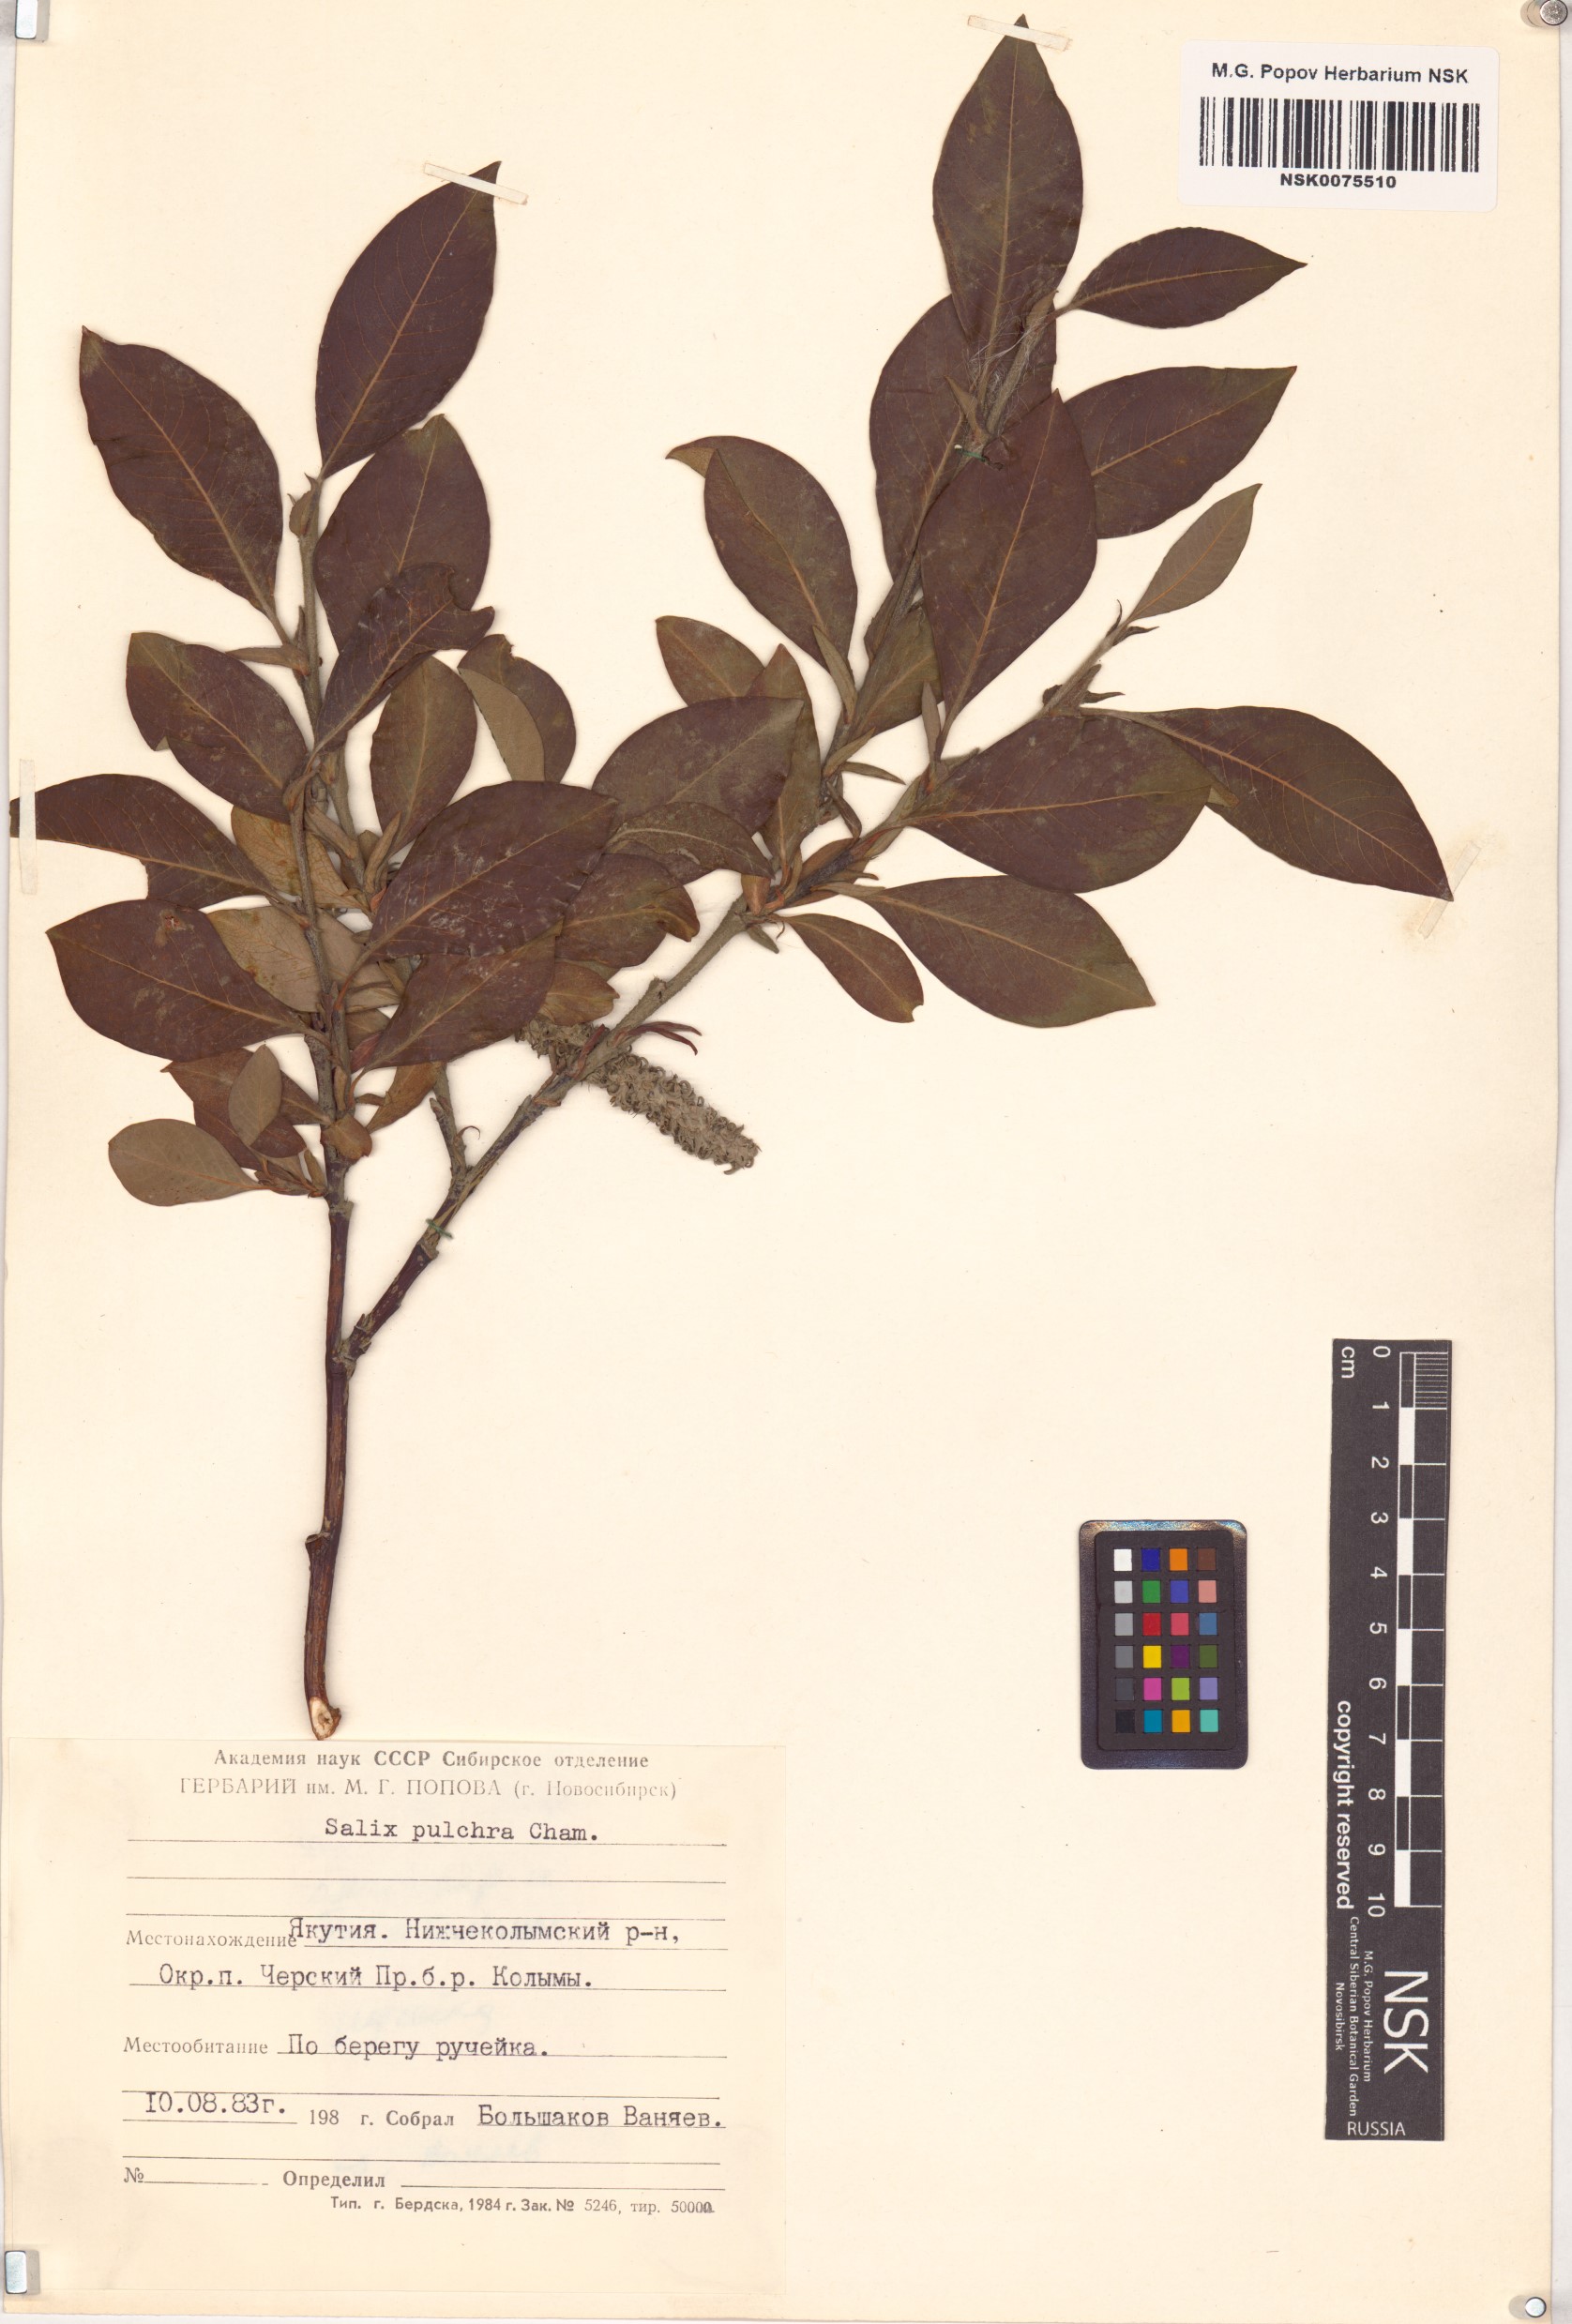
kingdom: Plantae
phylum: Tracheophyta
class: Magnoliopsida
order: Malpighiales
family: Salicaceae
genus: Salix
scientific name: Salix pulchra
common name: Diamond-leaved willow
